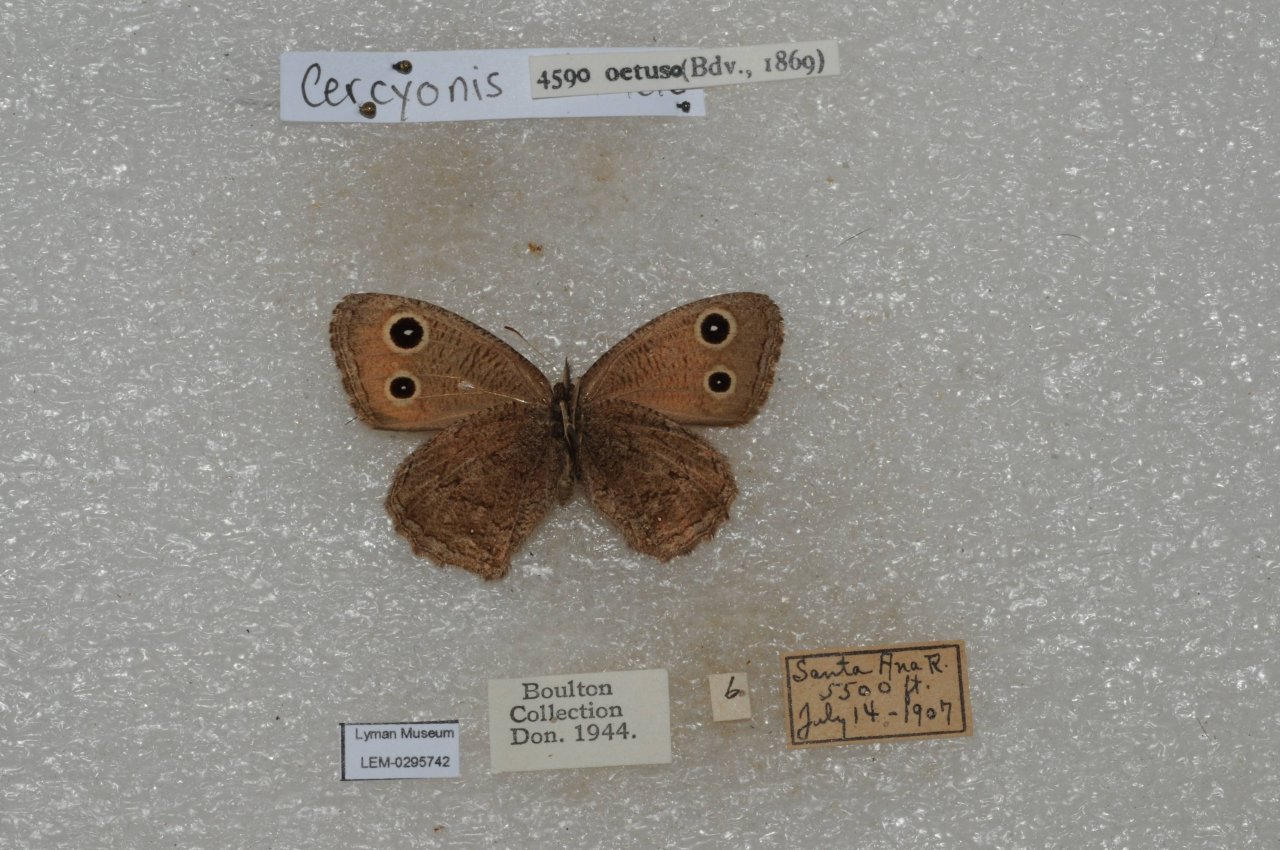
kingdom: Animalia
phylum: Arthropoda
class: Insecta
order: Lepidoptera
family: Nymphalidae
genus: Cercyonis
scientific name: Cercyonis oetus
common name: Small Wood-Nymph
